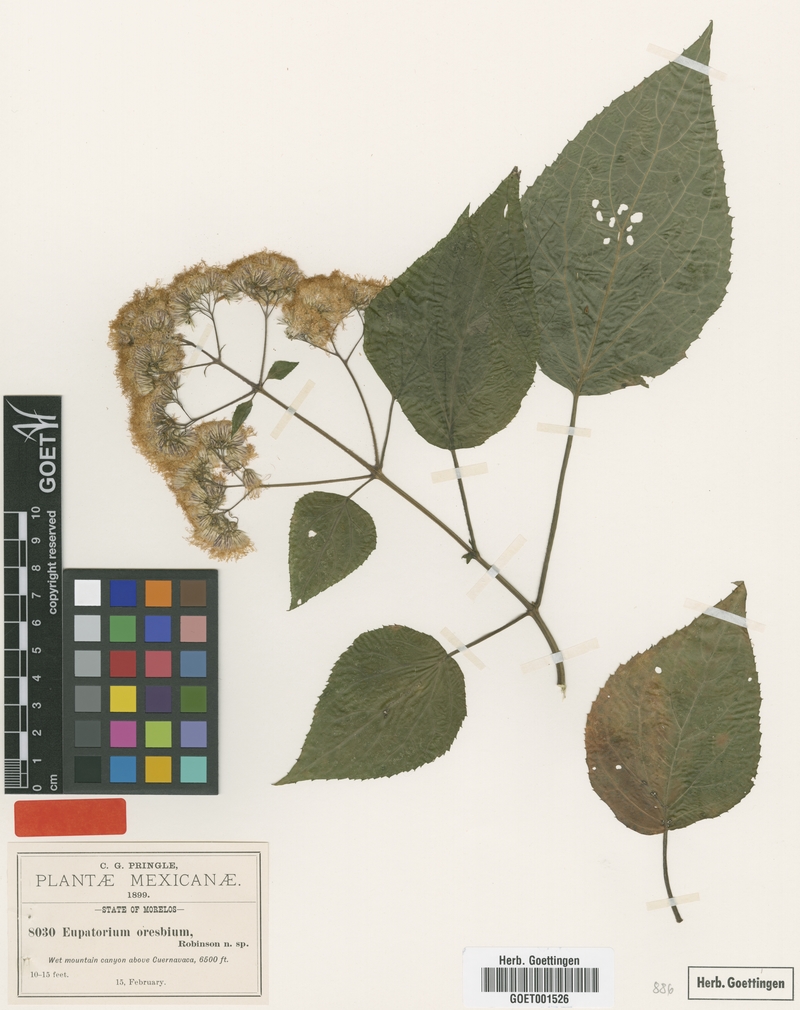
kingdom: Plantae
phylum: Tracheophyta
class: Magnoliopsida
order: Asterales
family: Asteraceae
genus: Bartlettina
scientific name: Bartlettina oresbia
